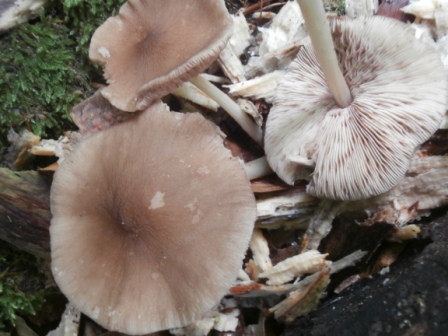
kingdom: Fungi
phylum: Basidiomycota
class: Agaricomycetes
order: Agaricales
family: Pluteaceae
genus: Pluteus
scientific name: Pluteus phlebophorus
